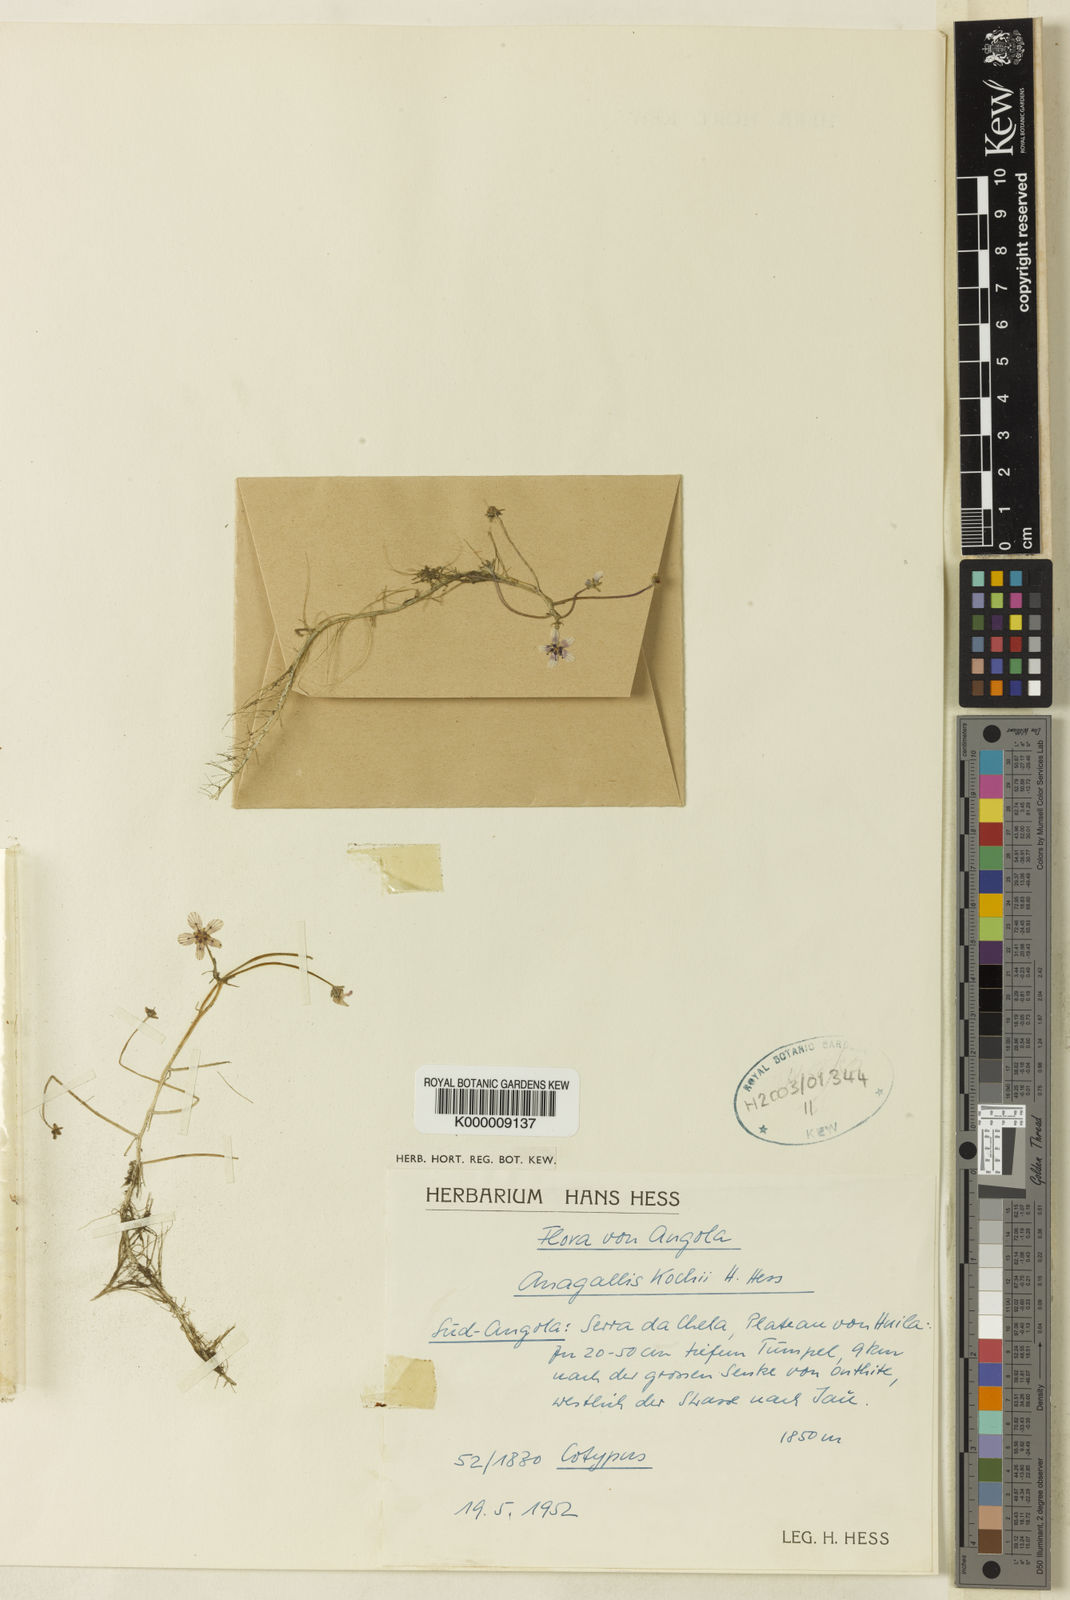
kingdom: Plantae
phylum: Tracheophyta
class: Magnoliopsida
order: Ericales
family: Primulaceae
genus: Lysimachia
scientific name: Lysimachia kochii
